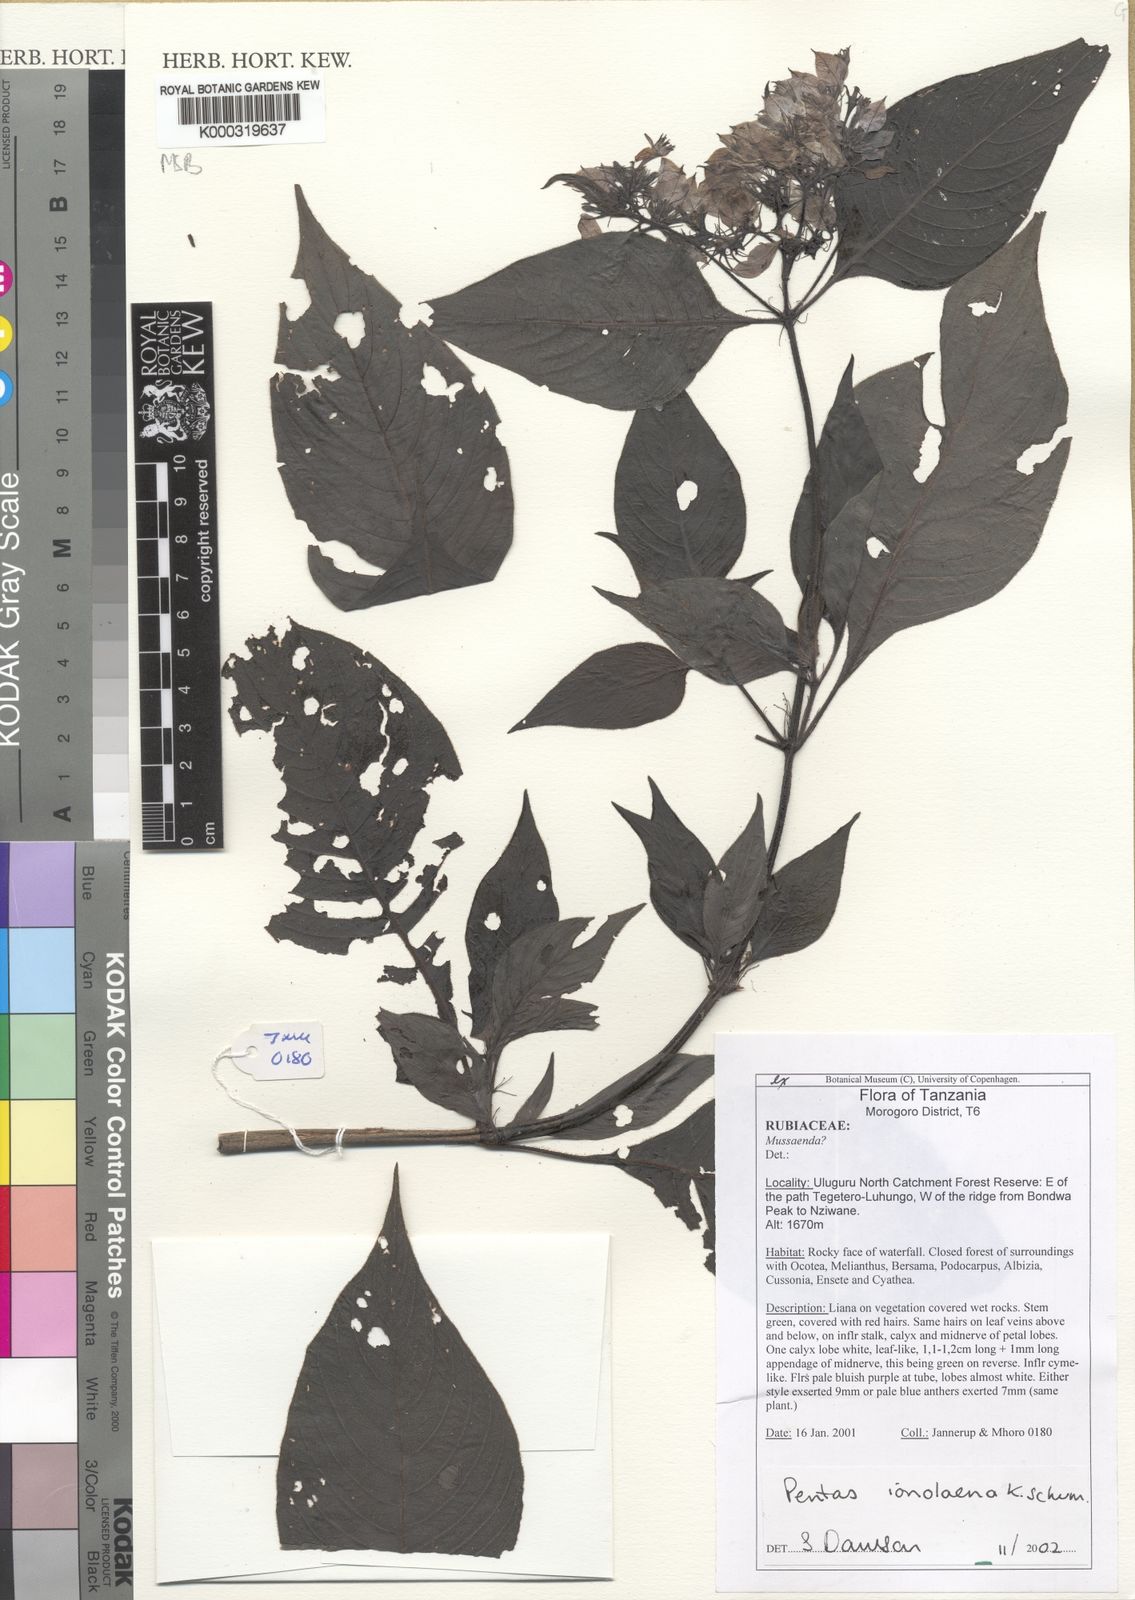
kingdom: Plantae
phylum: Tracheophyta
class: Magnoliopsida
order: Gentianales
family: Rubiaceae
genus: Phyllopentas
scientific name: Phyllopentas ionolaena
